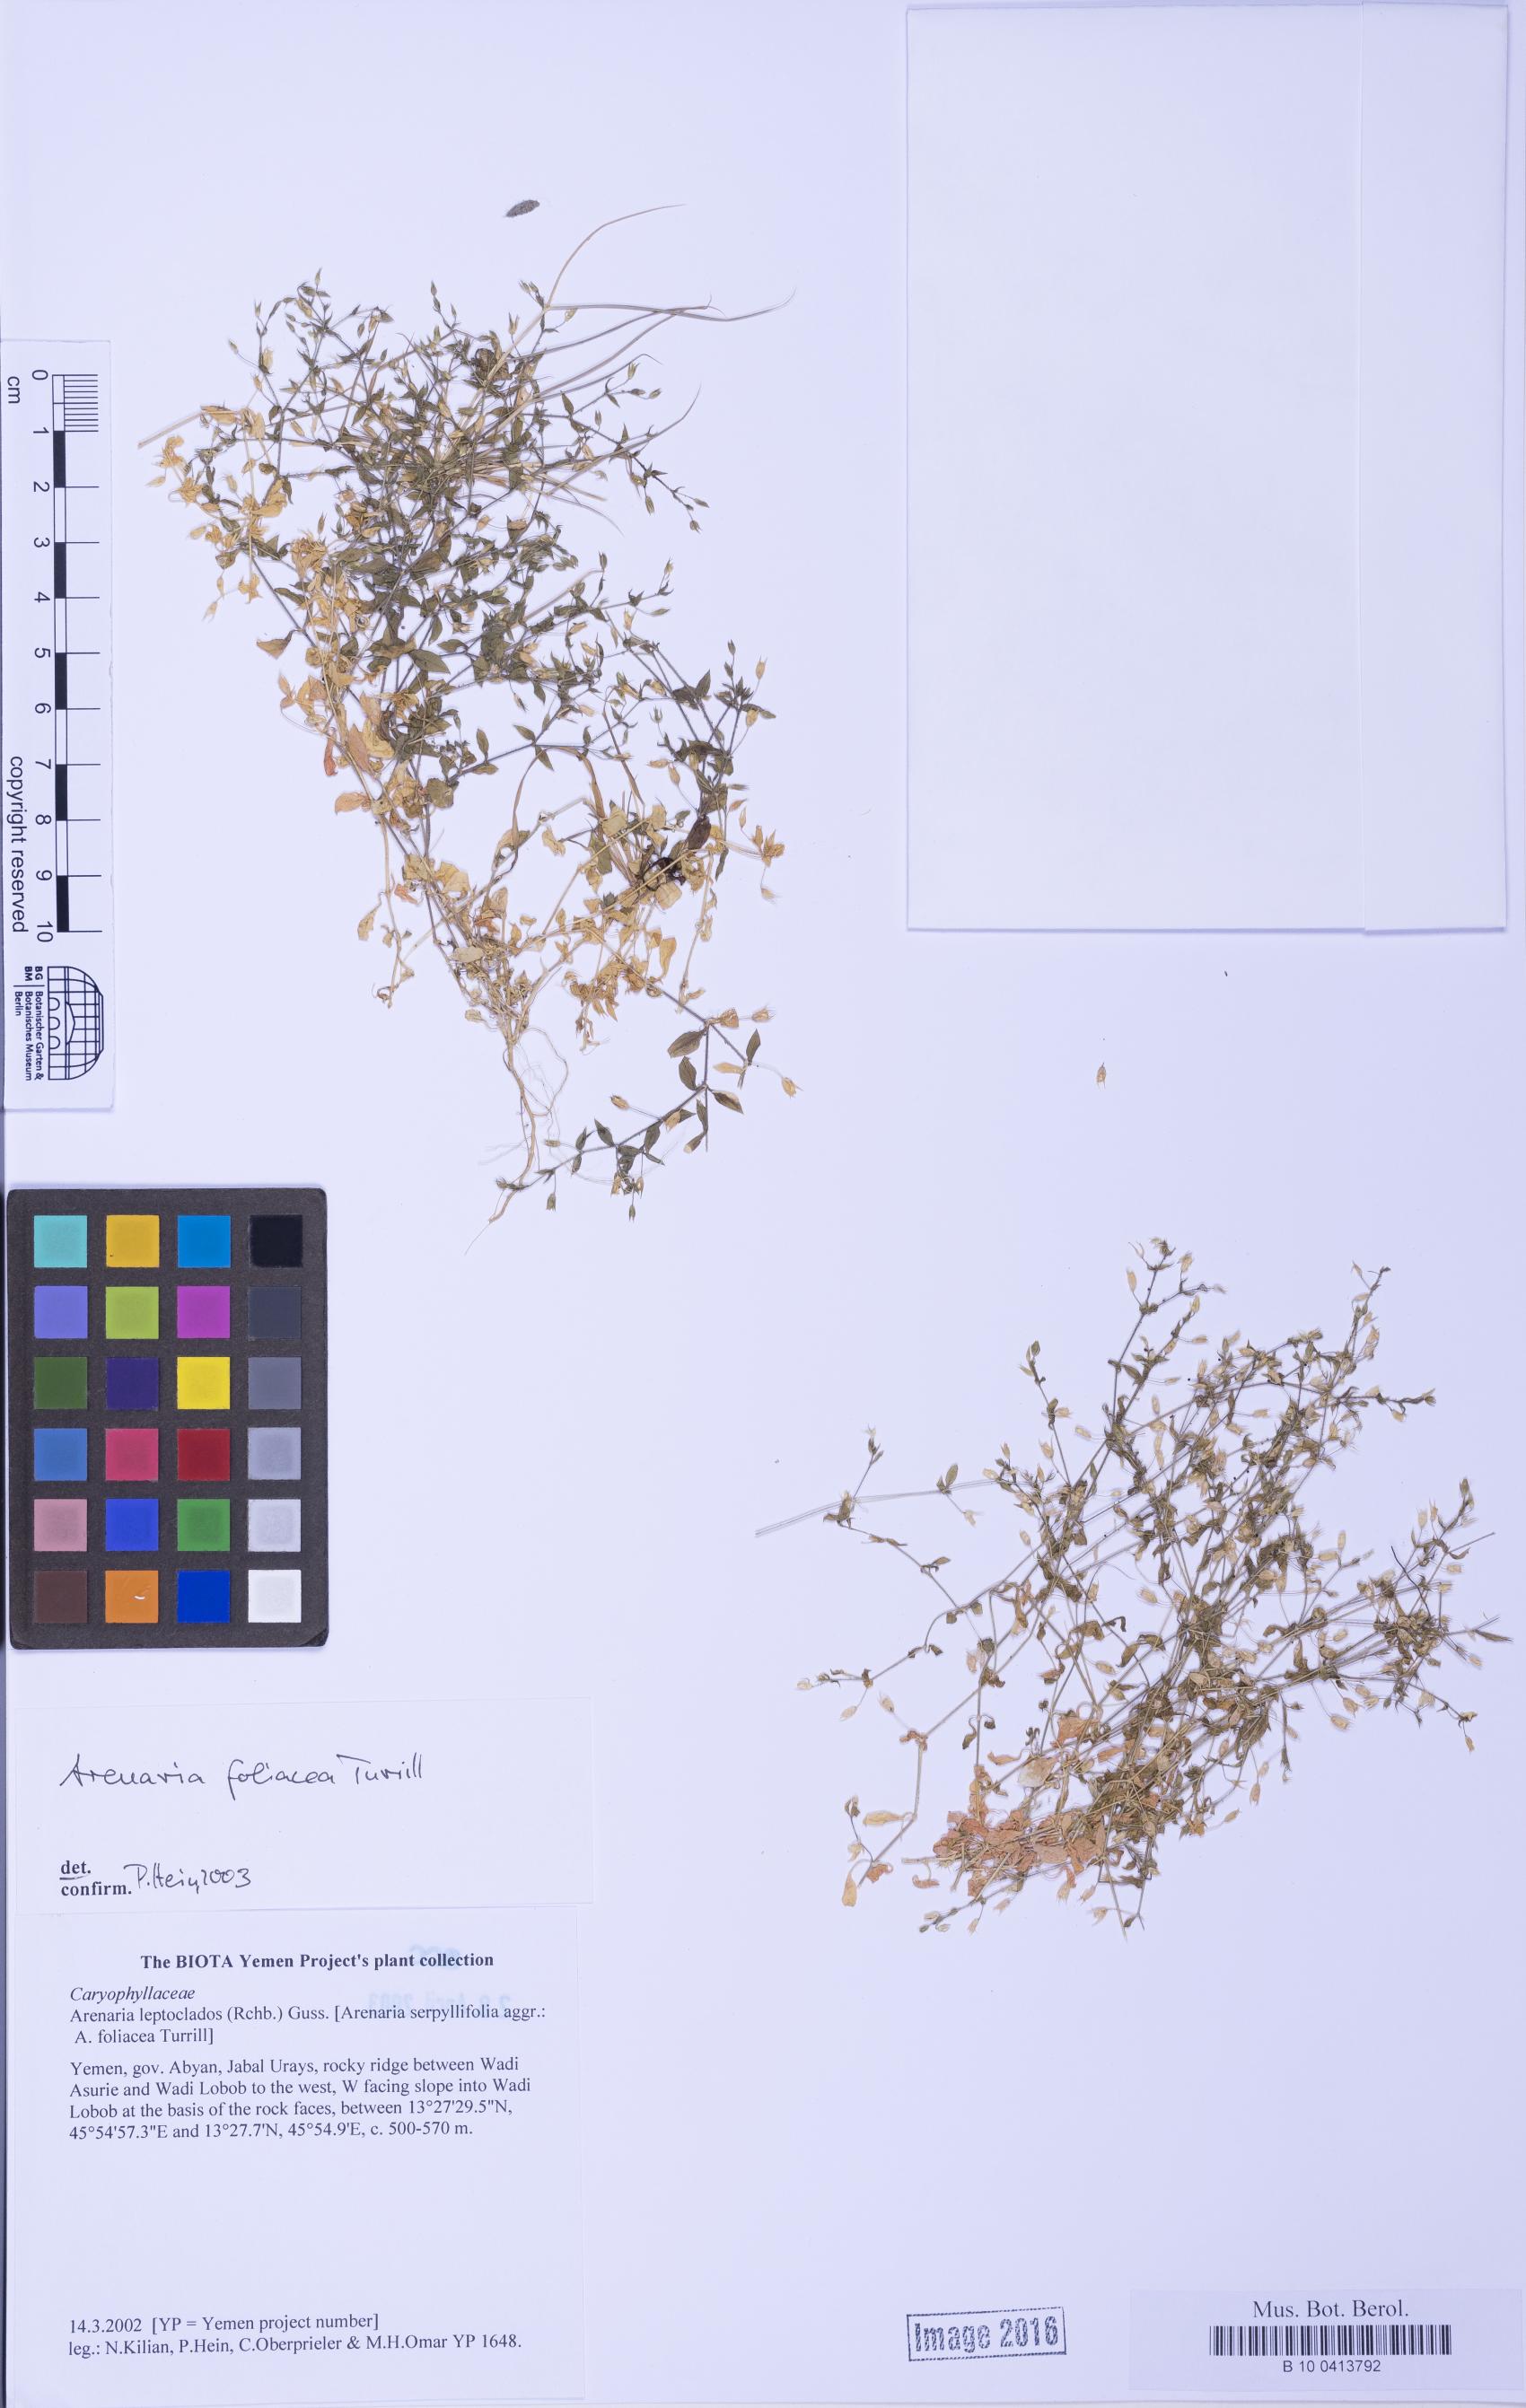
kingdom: Plantae
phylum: Tracheophyta
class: Magnoliopsida
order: Caryophyllales
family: Caryophyllaceae
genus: Arenaria
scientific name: Arenaria leptoclados
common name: Thyme-leaved sandwort
